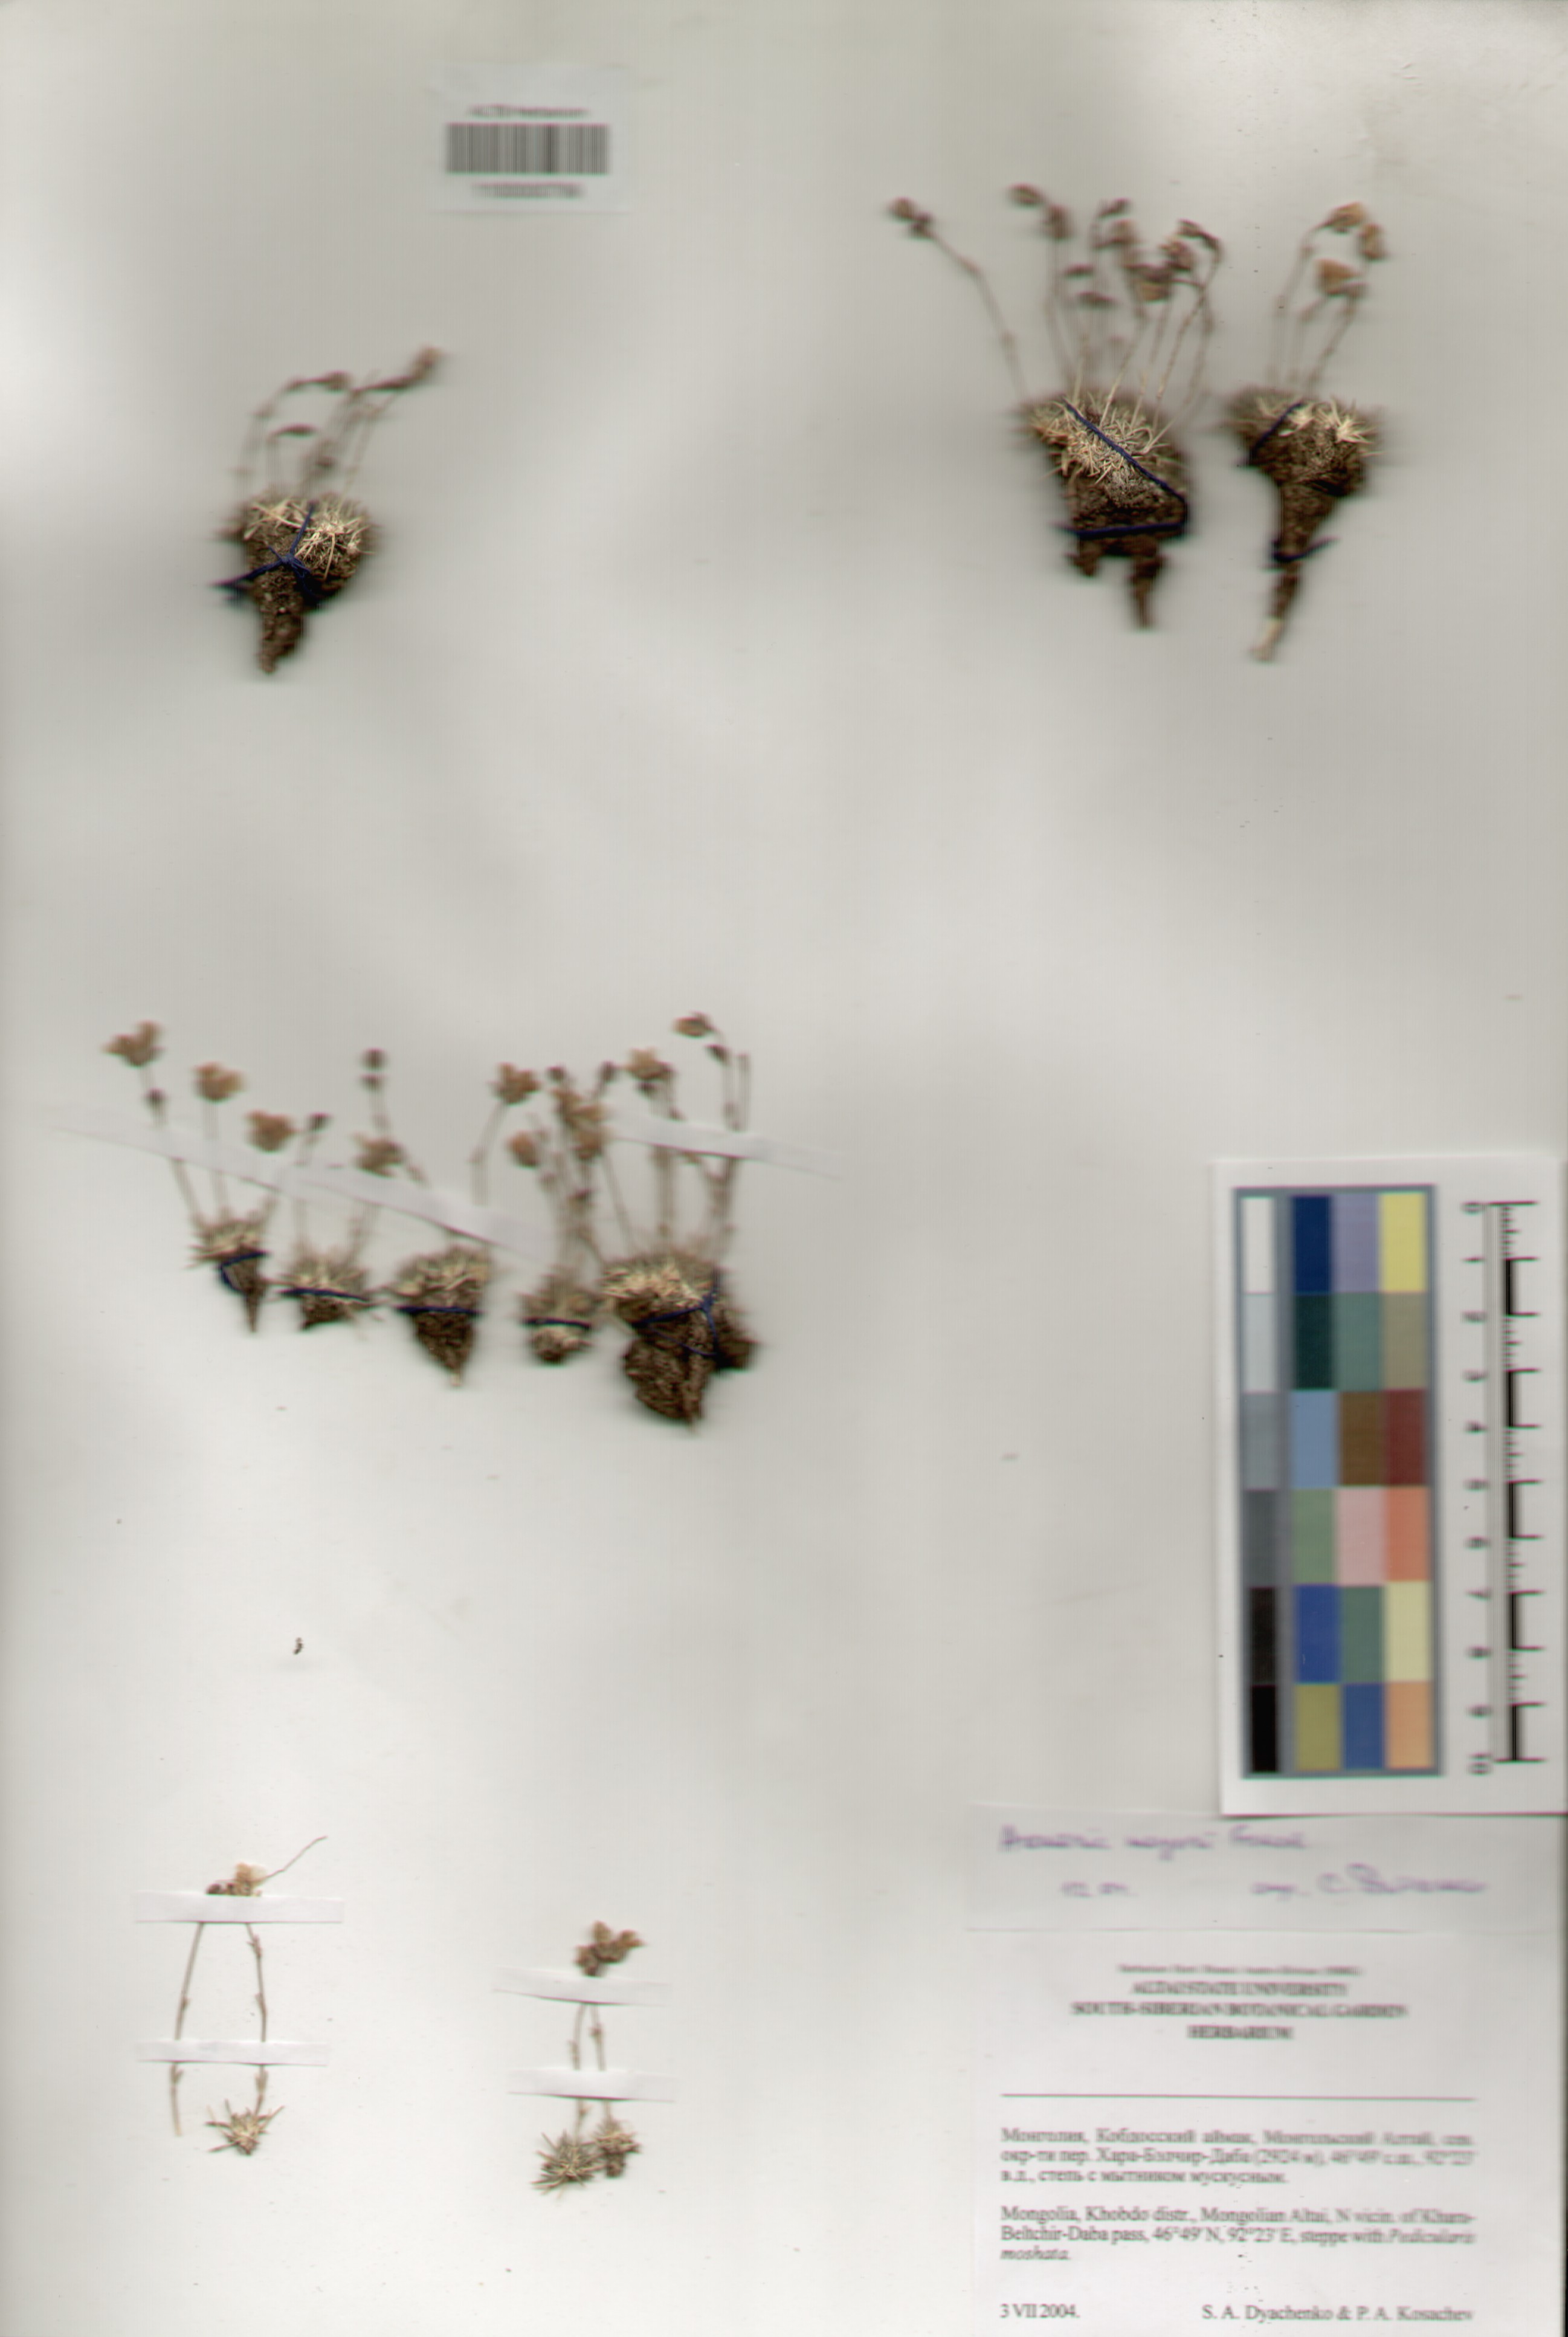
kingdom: Plantae
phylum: Tracheophyta
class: Magnoliopsida
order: Caryophyllales
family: Caryophyllaceae
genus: Eremogone
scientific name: Eremogone meyeri
